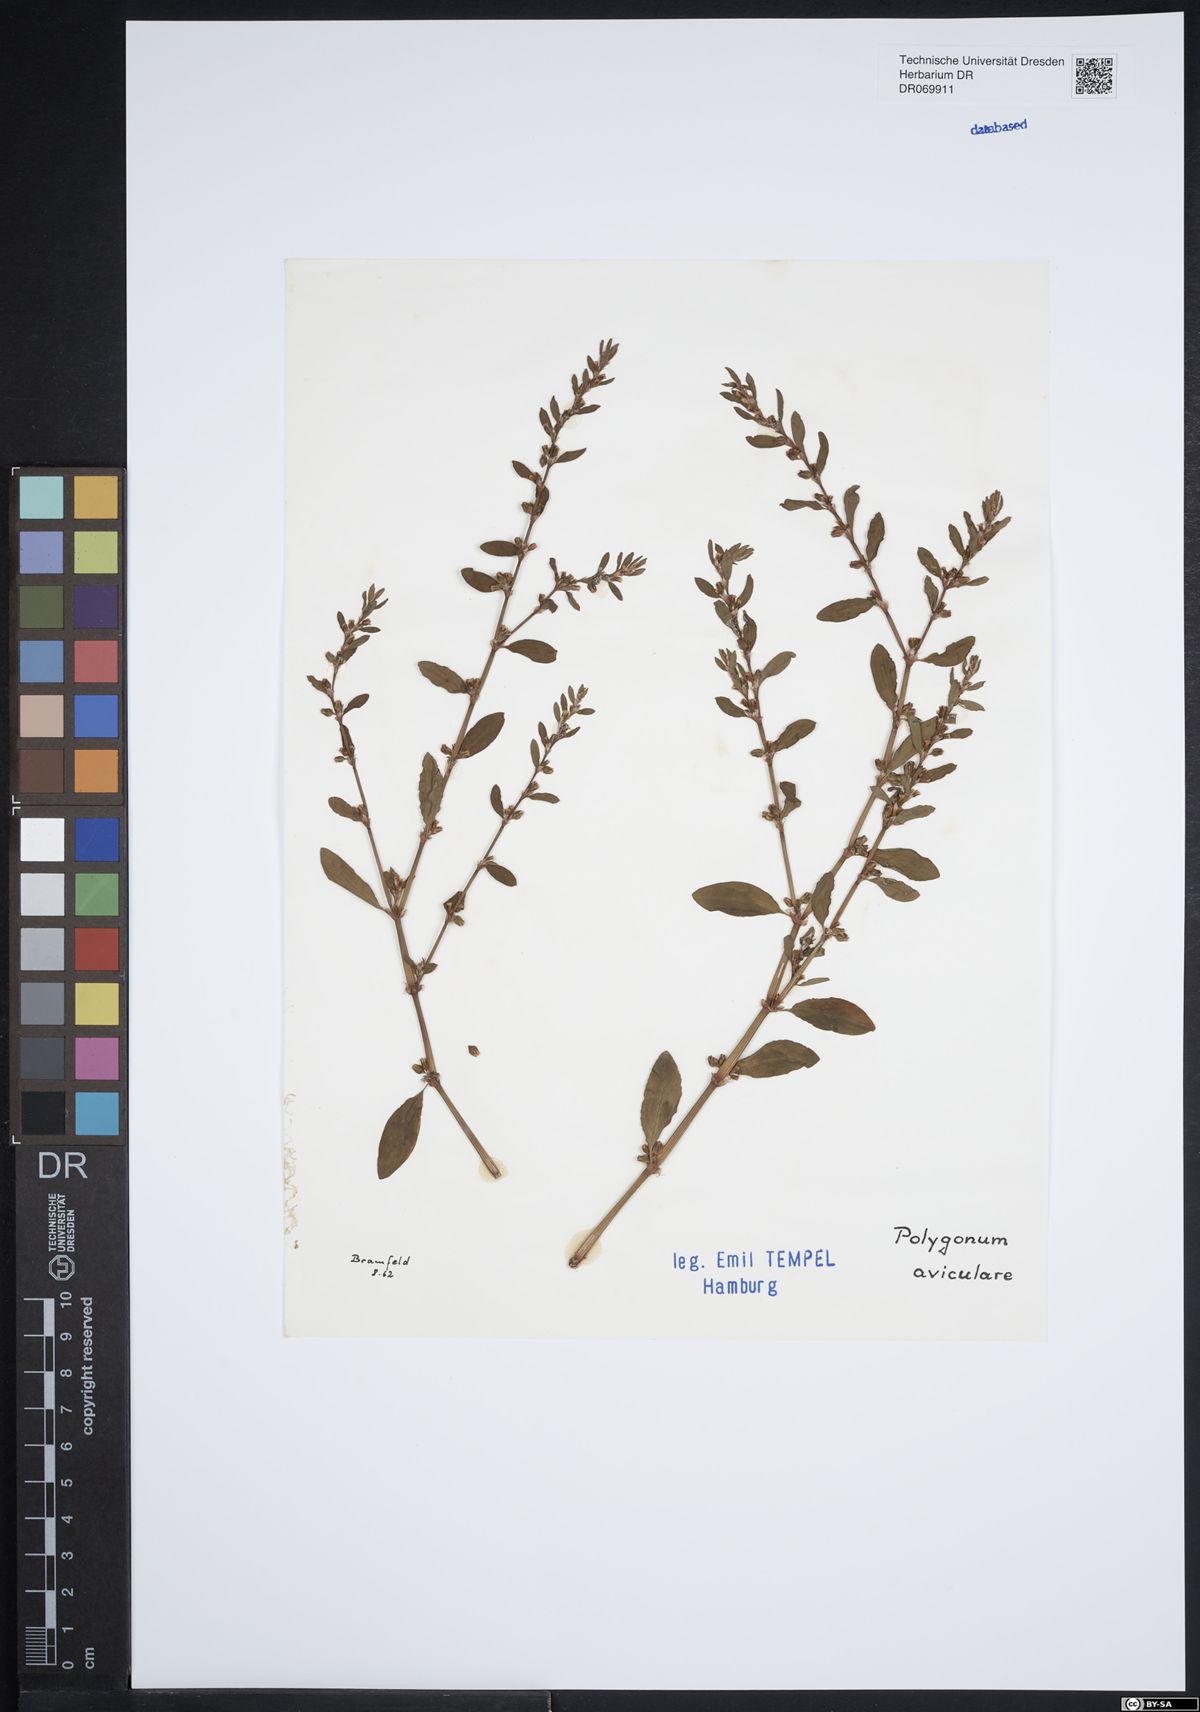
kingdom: Plantae
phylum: Tracheophyta
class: Magnoliopsida
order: Caryophyllales
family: Polygonaceae
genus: Polygonum
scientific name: Polygonum aviculare
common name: Prostrate knotweed
